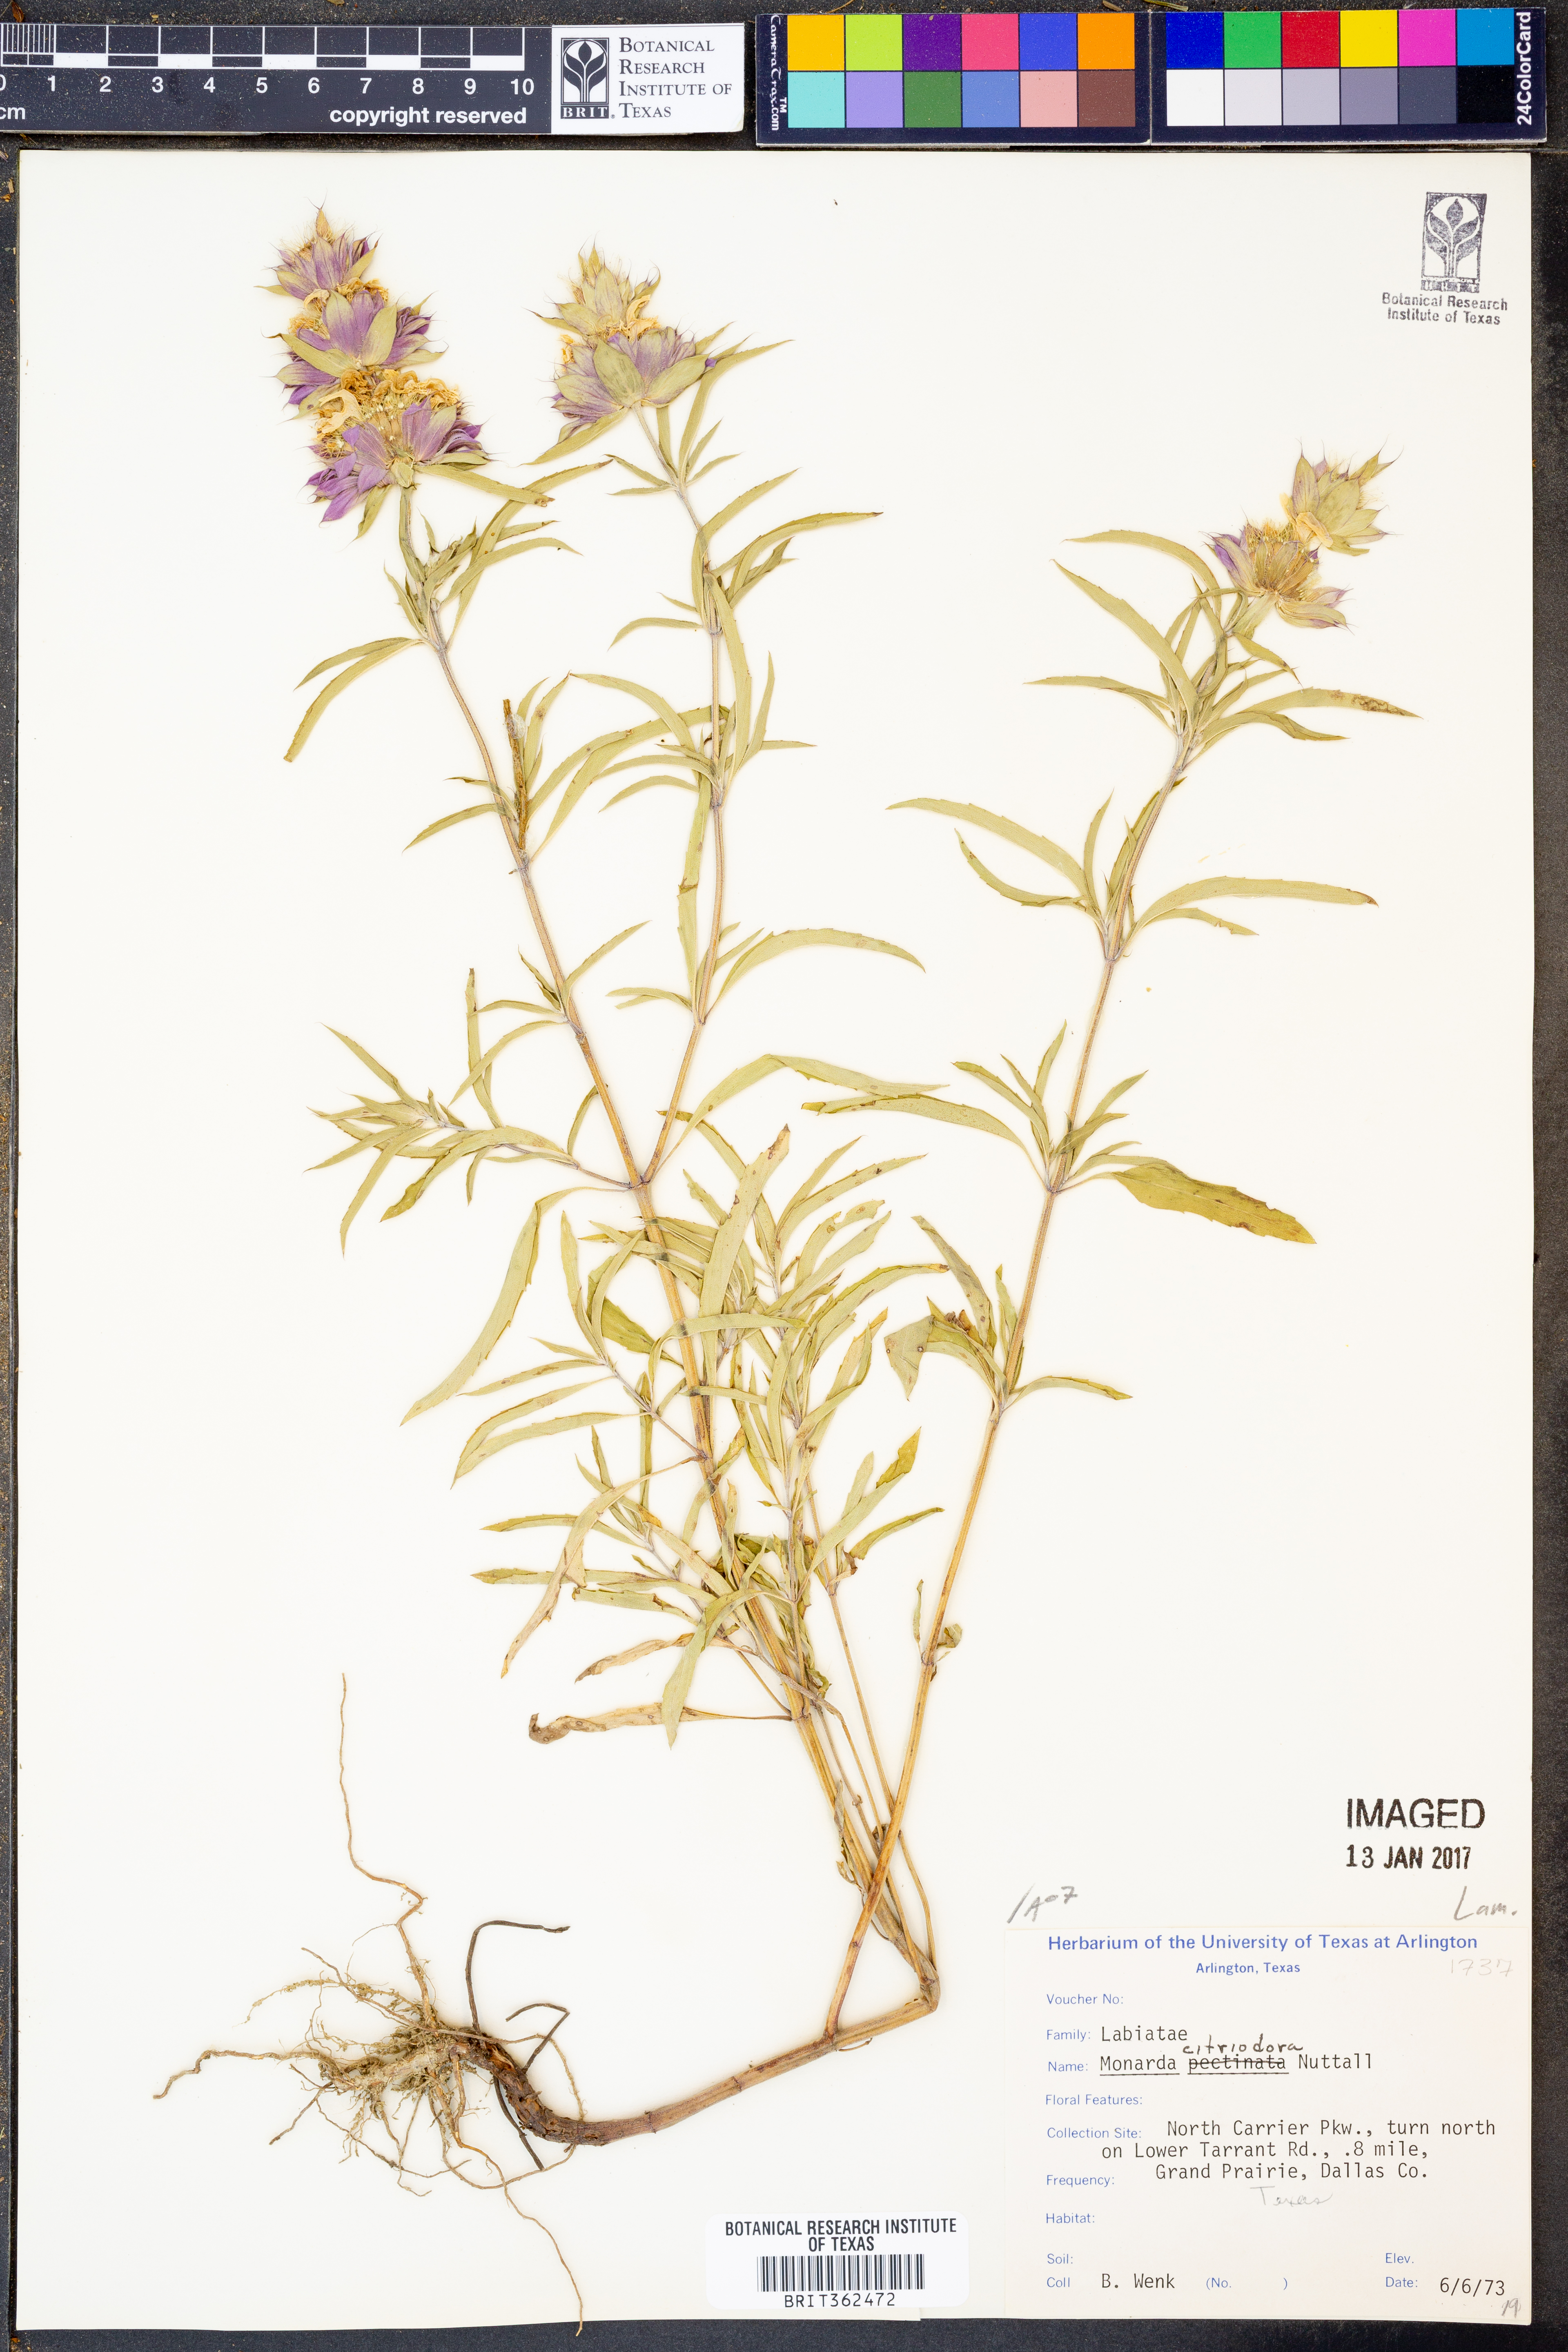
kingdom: Plantae
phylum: Tracheophyta
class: Magnoliopsida
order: Lamiales
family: Lamiaceae
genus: Monarda
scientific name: Monarda citriodora
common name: Lemon beebalm
